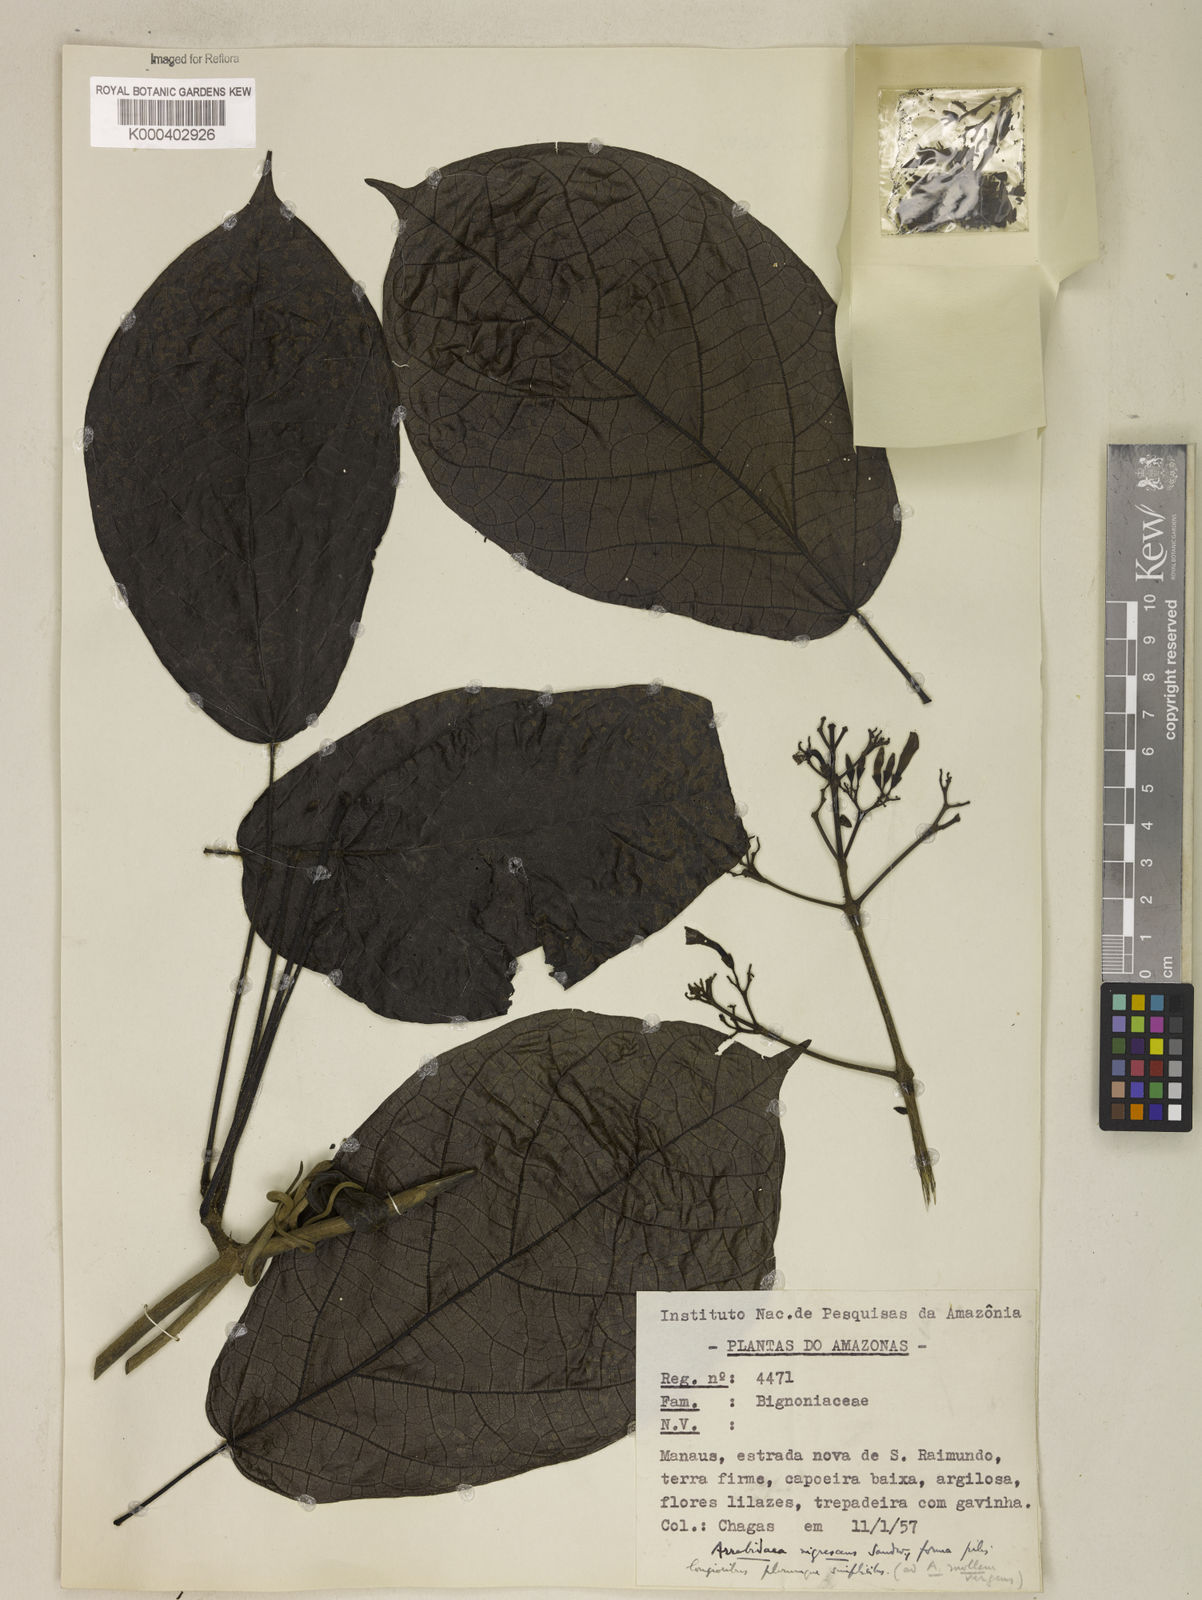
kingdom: Plantae
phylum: Tracheophyta
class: Magnoliopsida
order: Lamiales
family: Bignoniaceae
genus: Fridericia
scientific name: Fridericia nigrescens
